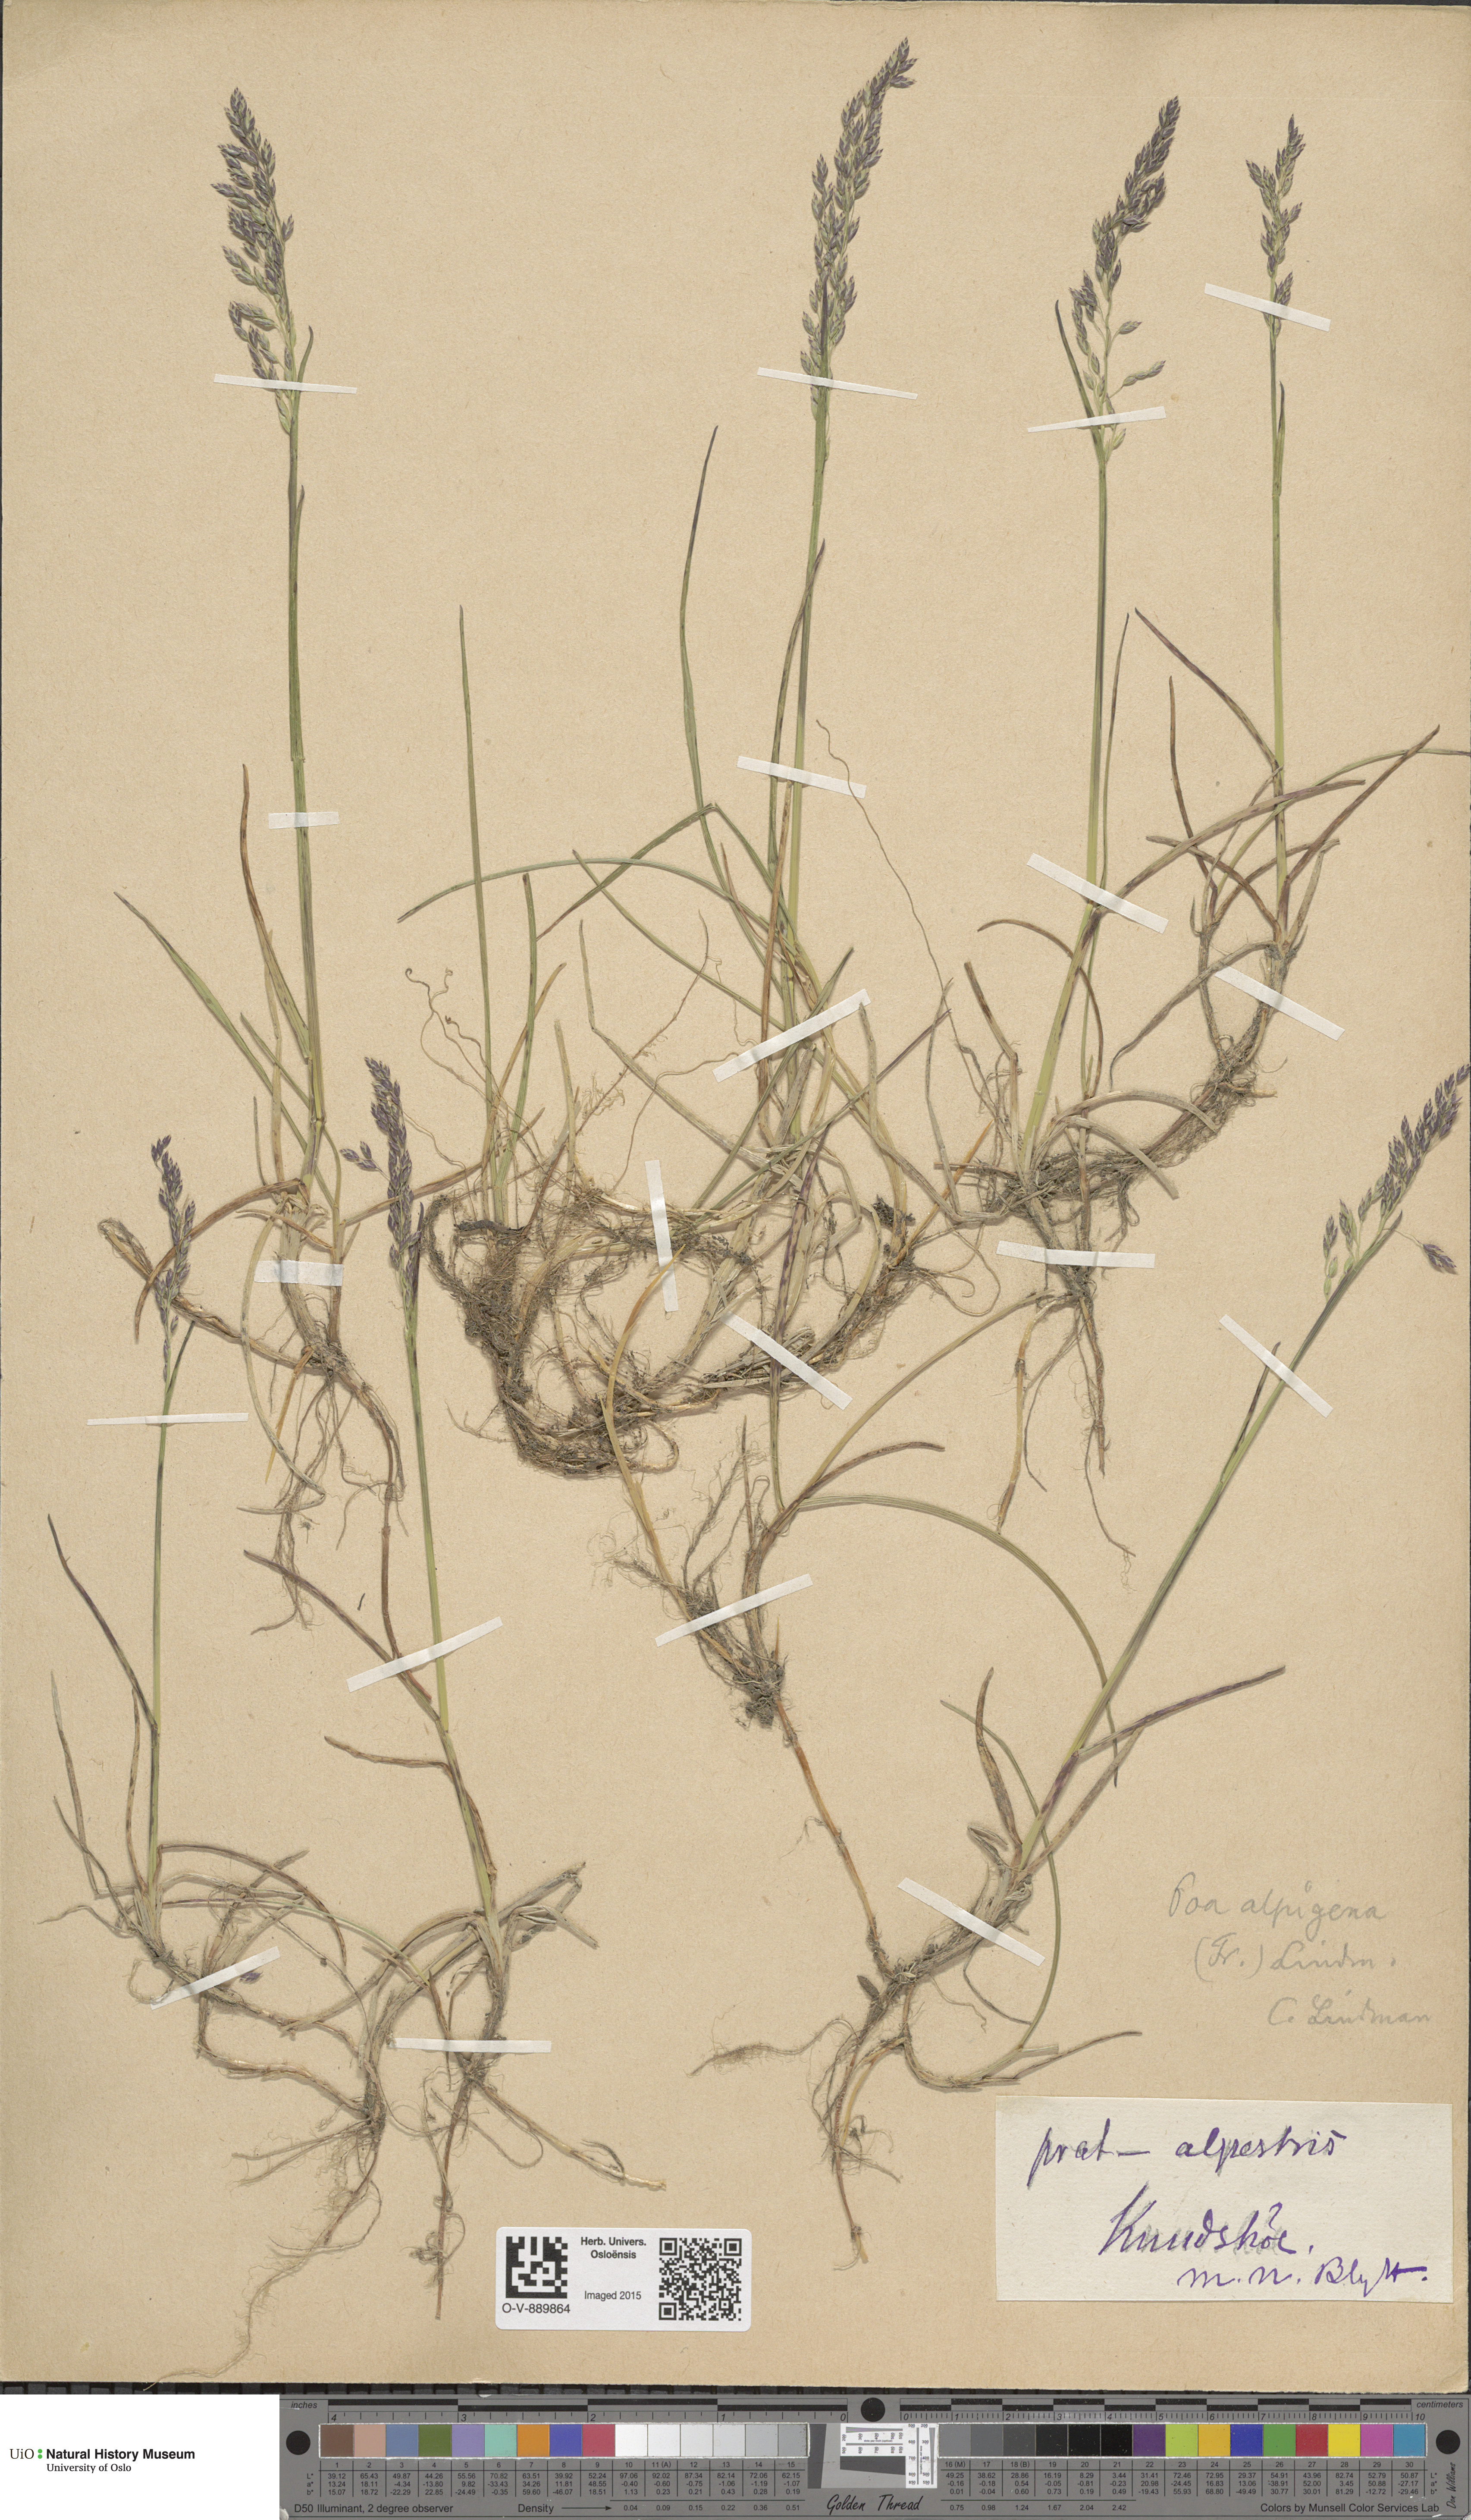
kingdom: Plantae
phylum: Tracheophyta
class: Liliopsida
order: Poales
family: Poaceae
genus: Poa
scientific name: Poa alpigena
